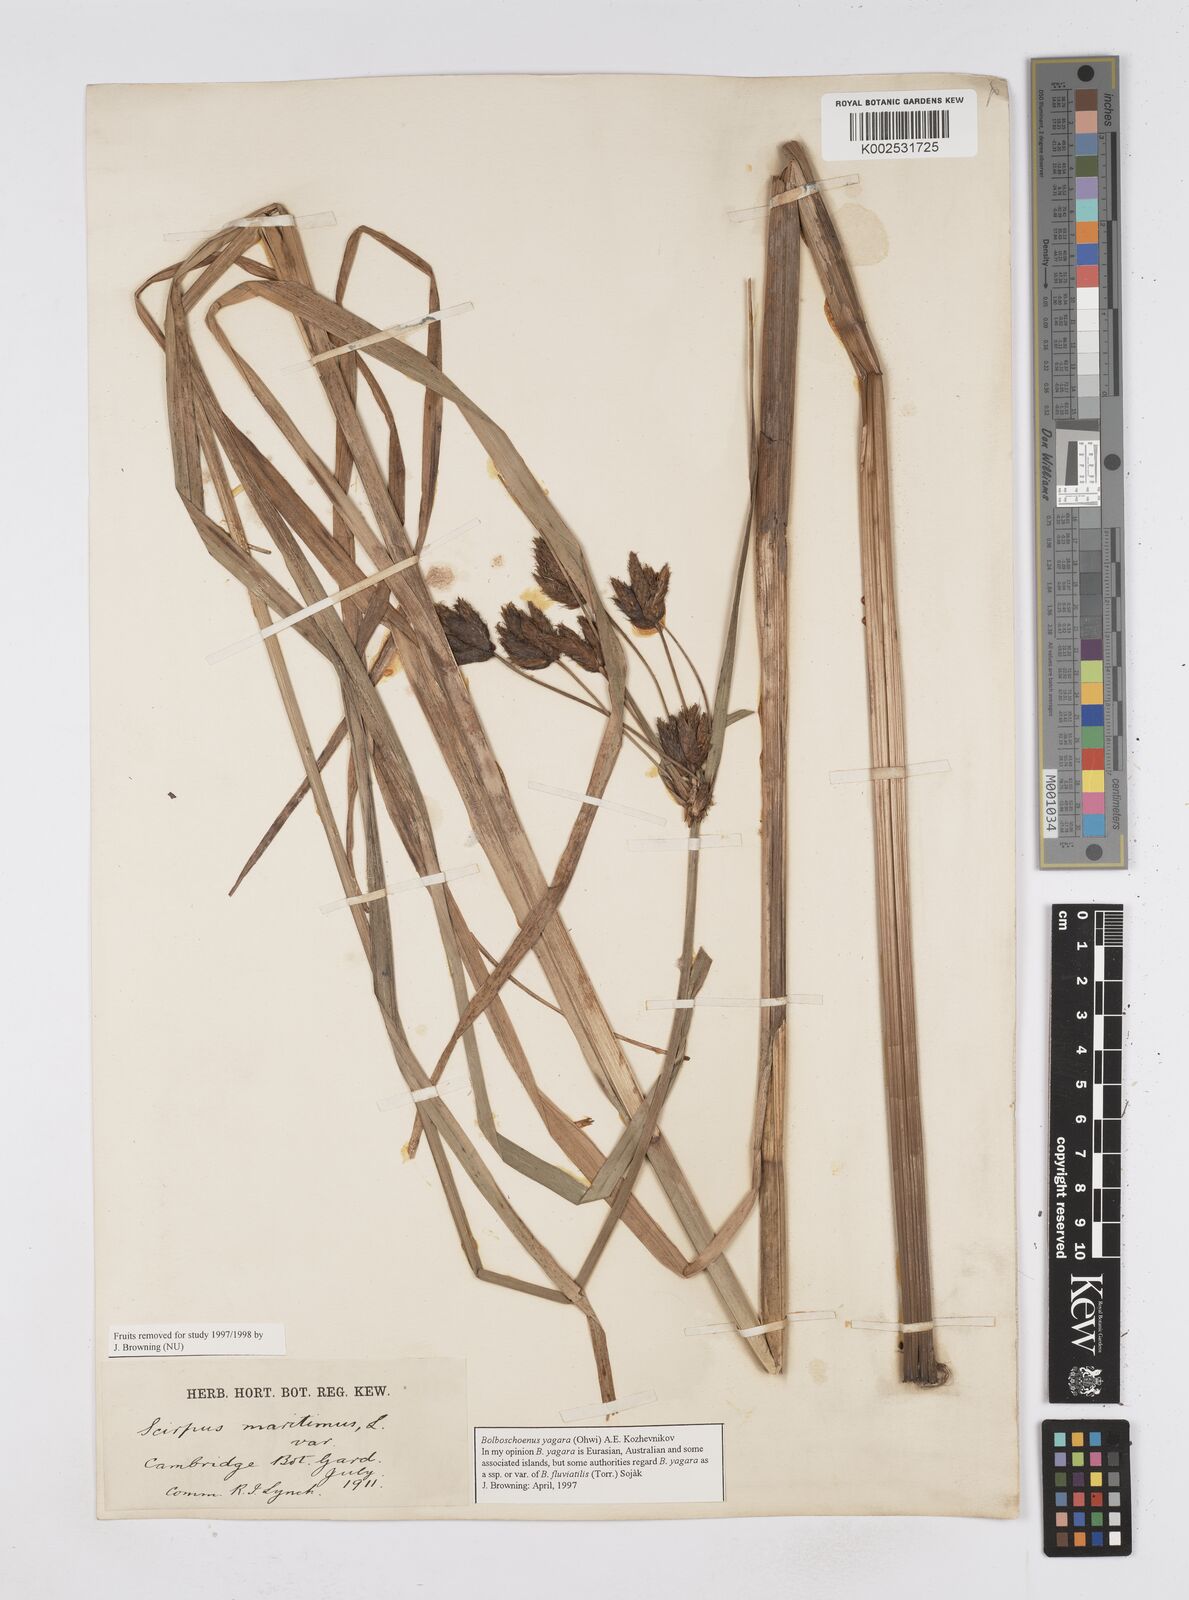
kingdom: Plantae
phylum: Tracheophyta
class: Liliopsida
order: Poales
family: Cyperaceae
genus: Bolboschoenus
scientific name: Bolboschoenus yagara
